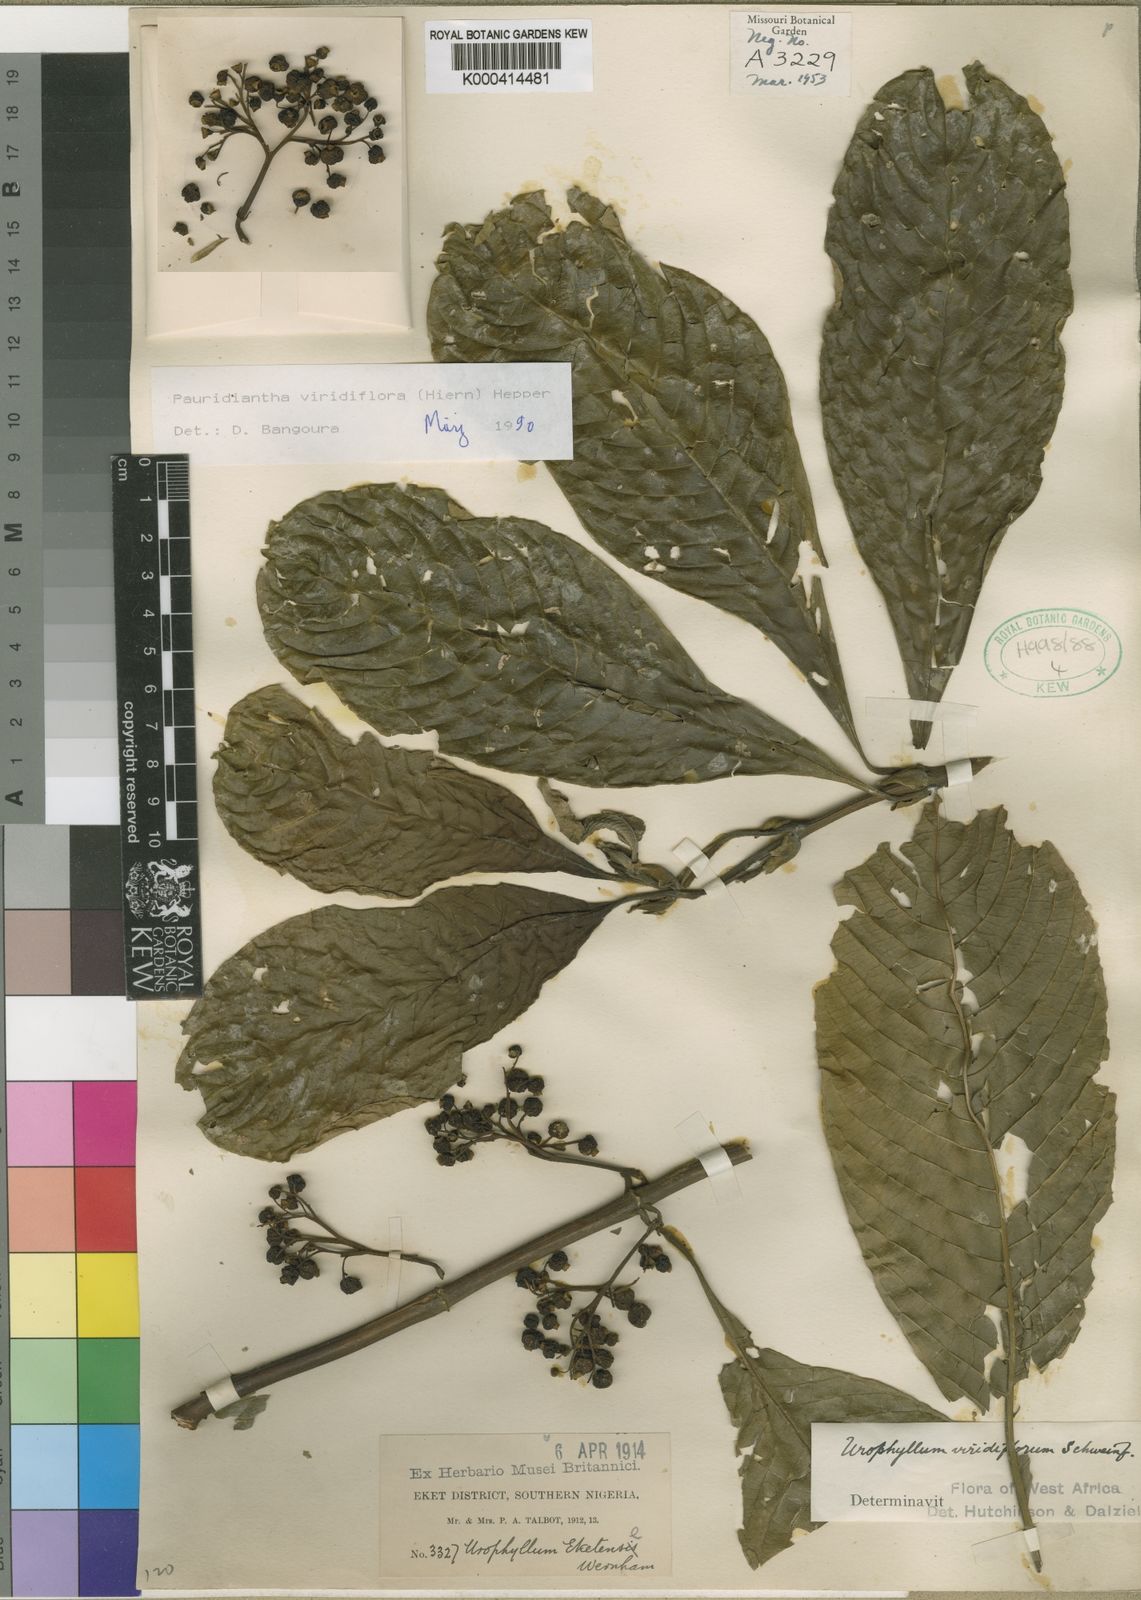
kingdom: Plantae
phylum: Tracheophyta
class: Magnoliopsida
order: Gentianales
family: Rubiaceae
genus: Pauridiantha
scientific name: Pauridiantha viridiflora
